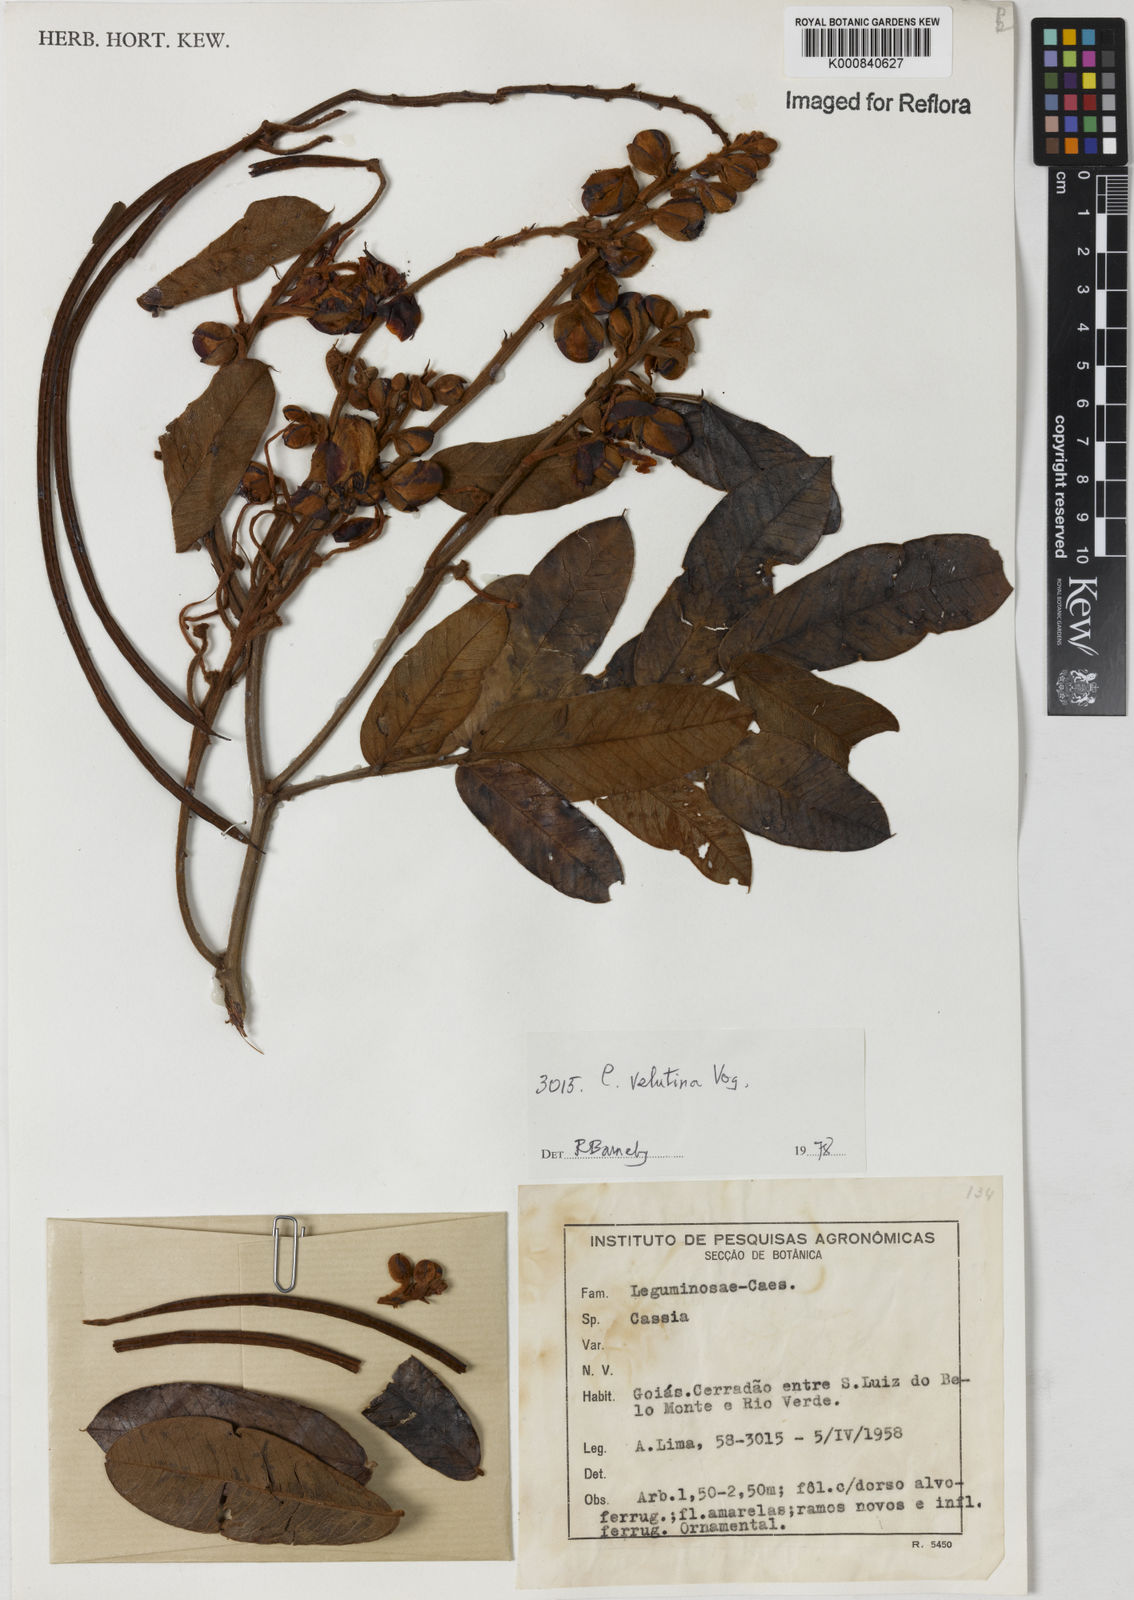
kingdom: Plantae
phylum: Tracheophyta
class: Magnoliopsida
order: Fabales
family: Fabaceae
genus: Senna
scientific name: Senna velutina
